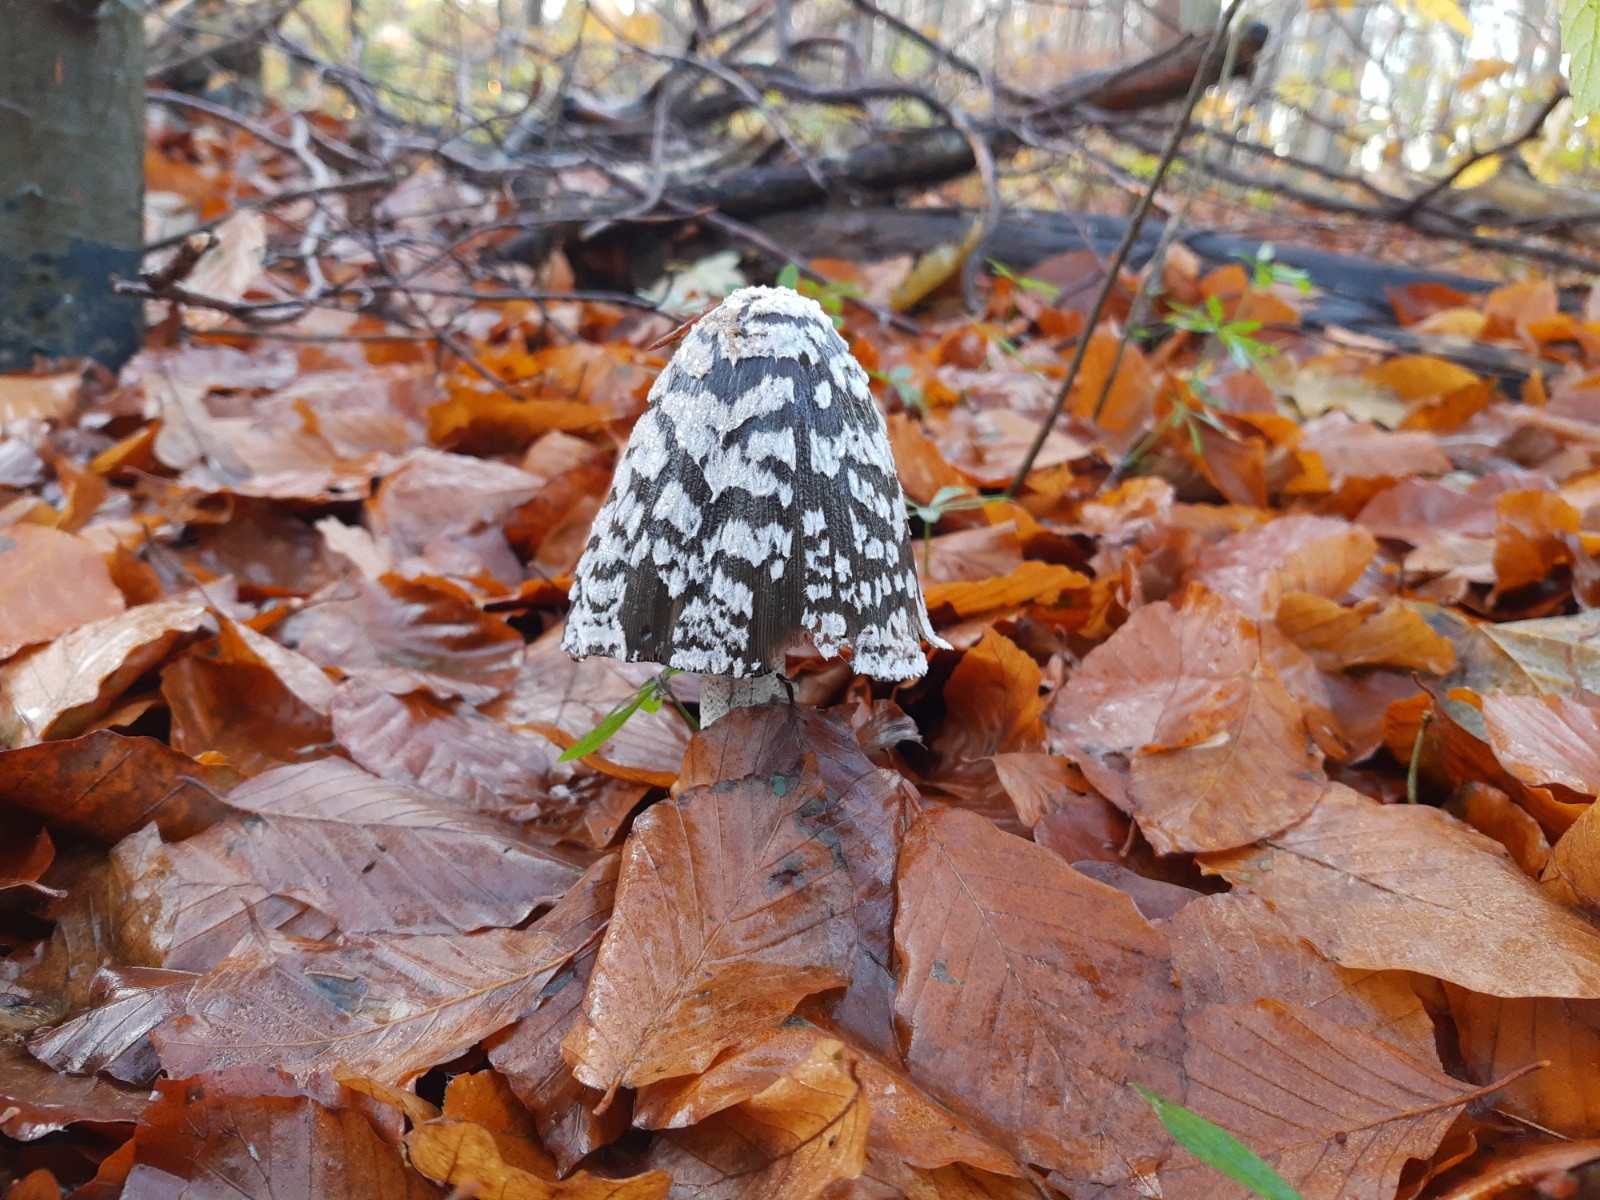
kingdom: Fungi
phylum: Basidiomycota
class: Agaricomycetes
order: Agaricales
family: Psathyrellaceae
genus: Coprinopsis
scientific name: Coprinopsis picacea
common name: skade-blækhat
